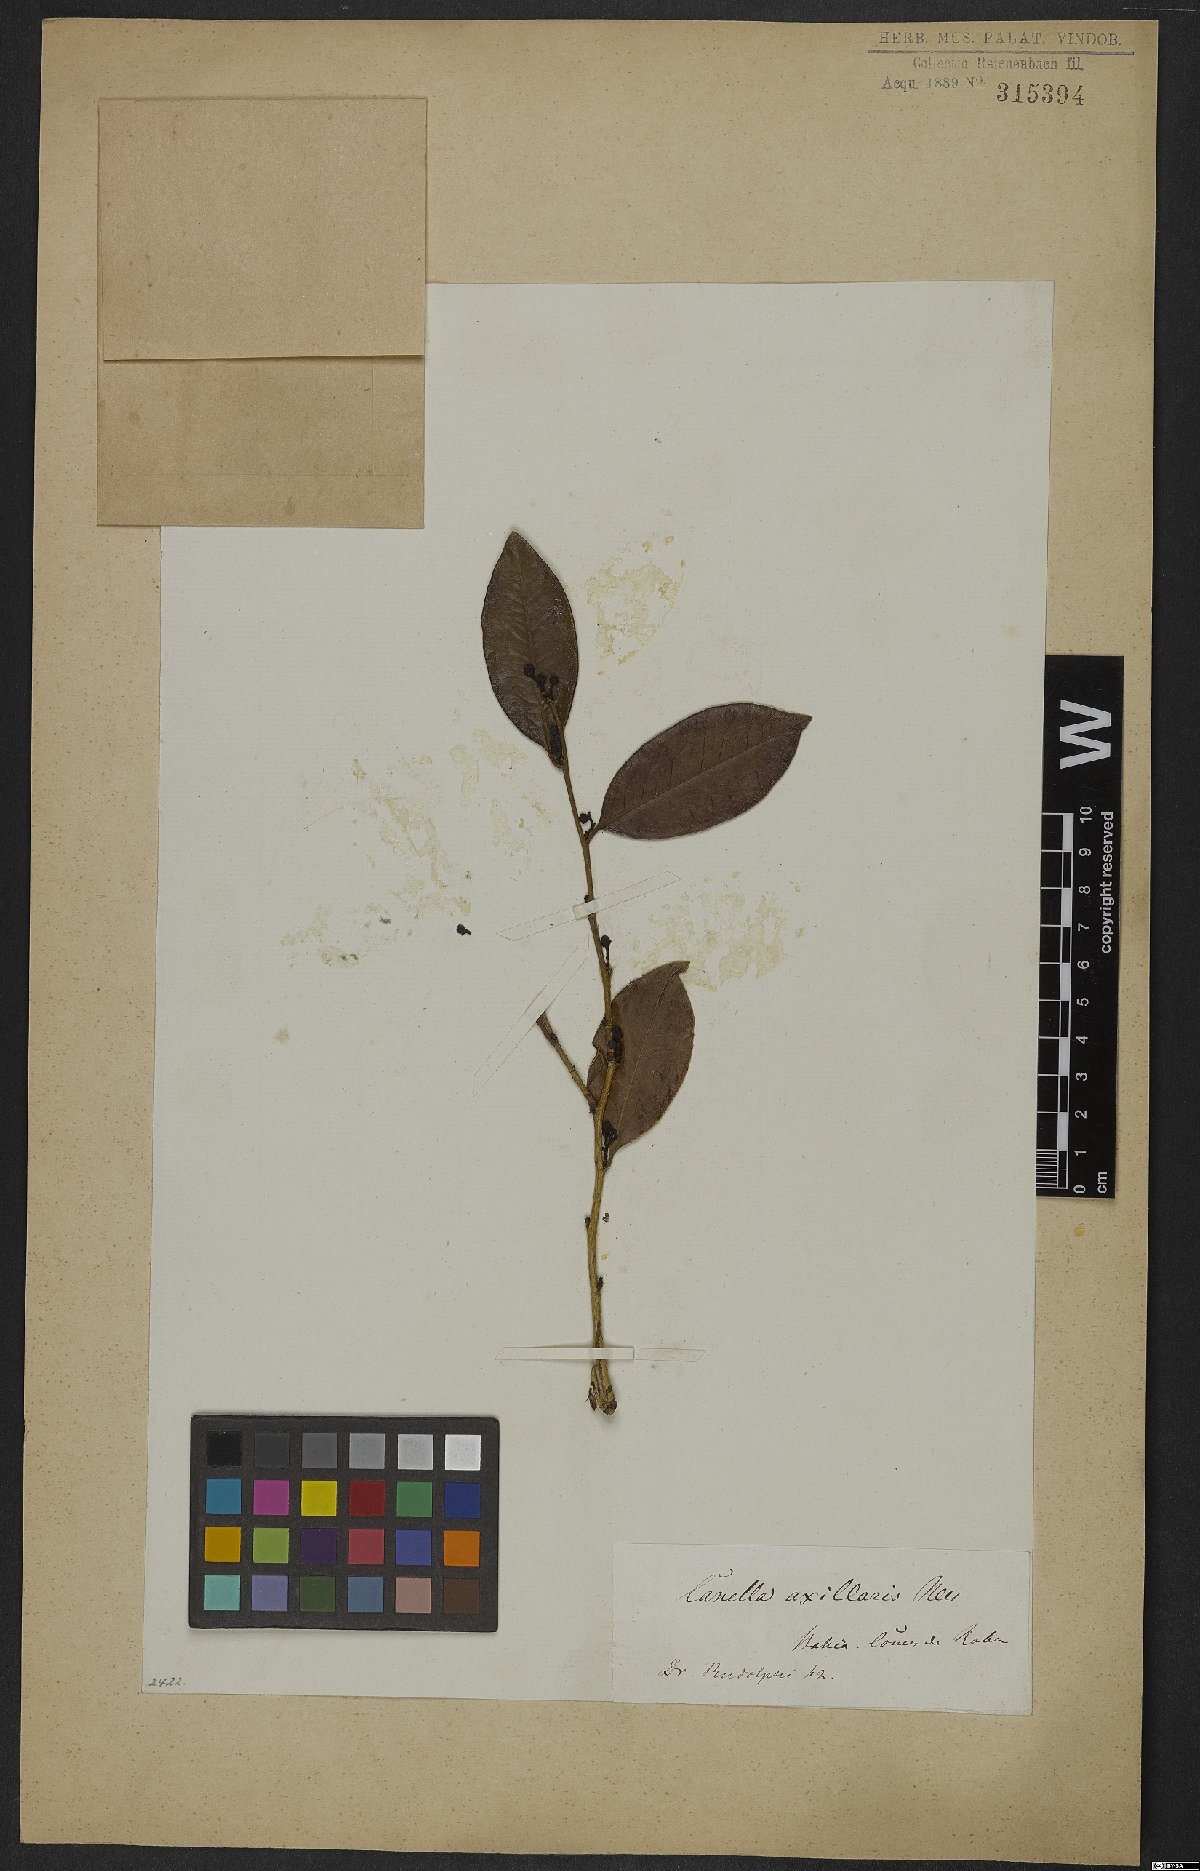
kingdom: Plantae
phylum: Tracheophyta
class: Magnoliopsida
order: Canellales
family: Canellaceae
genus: Cinnamodendron
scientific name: Cinnamodendron axillare
